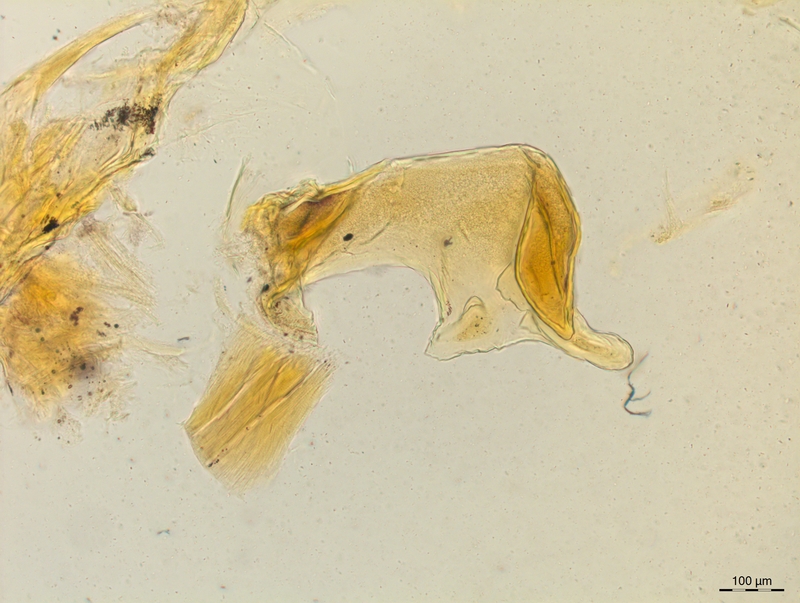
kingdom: Animalia
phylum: Arthropoda
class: Diplopoda
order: Chordeumatida
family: Craspedosomatidae
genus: Craspedosoma
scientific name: Craspedosoma rawlinsii
